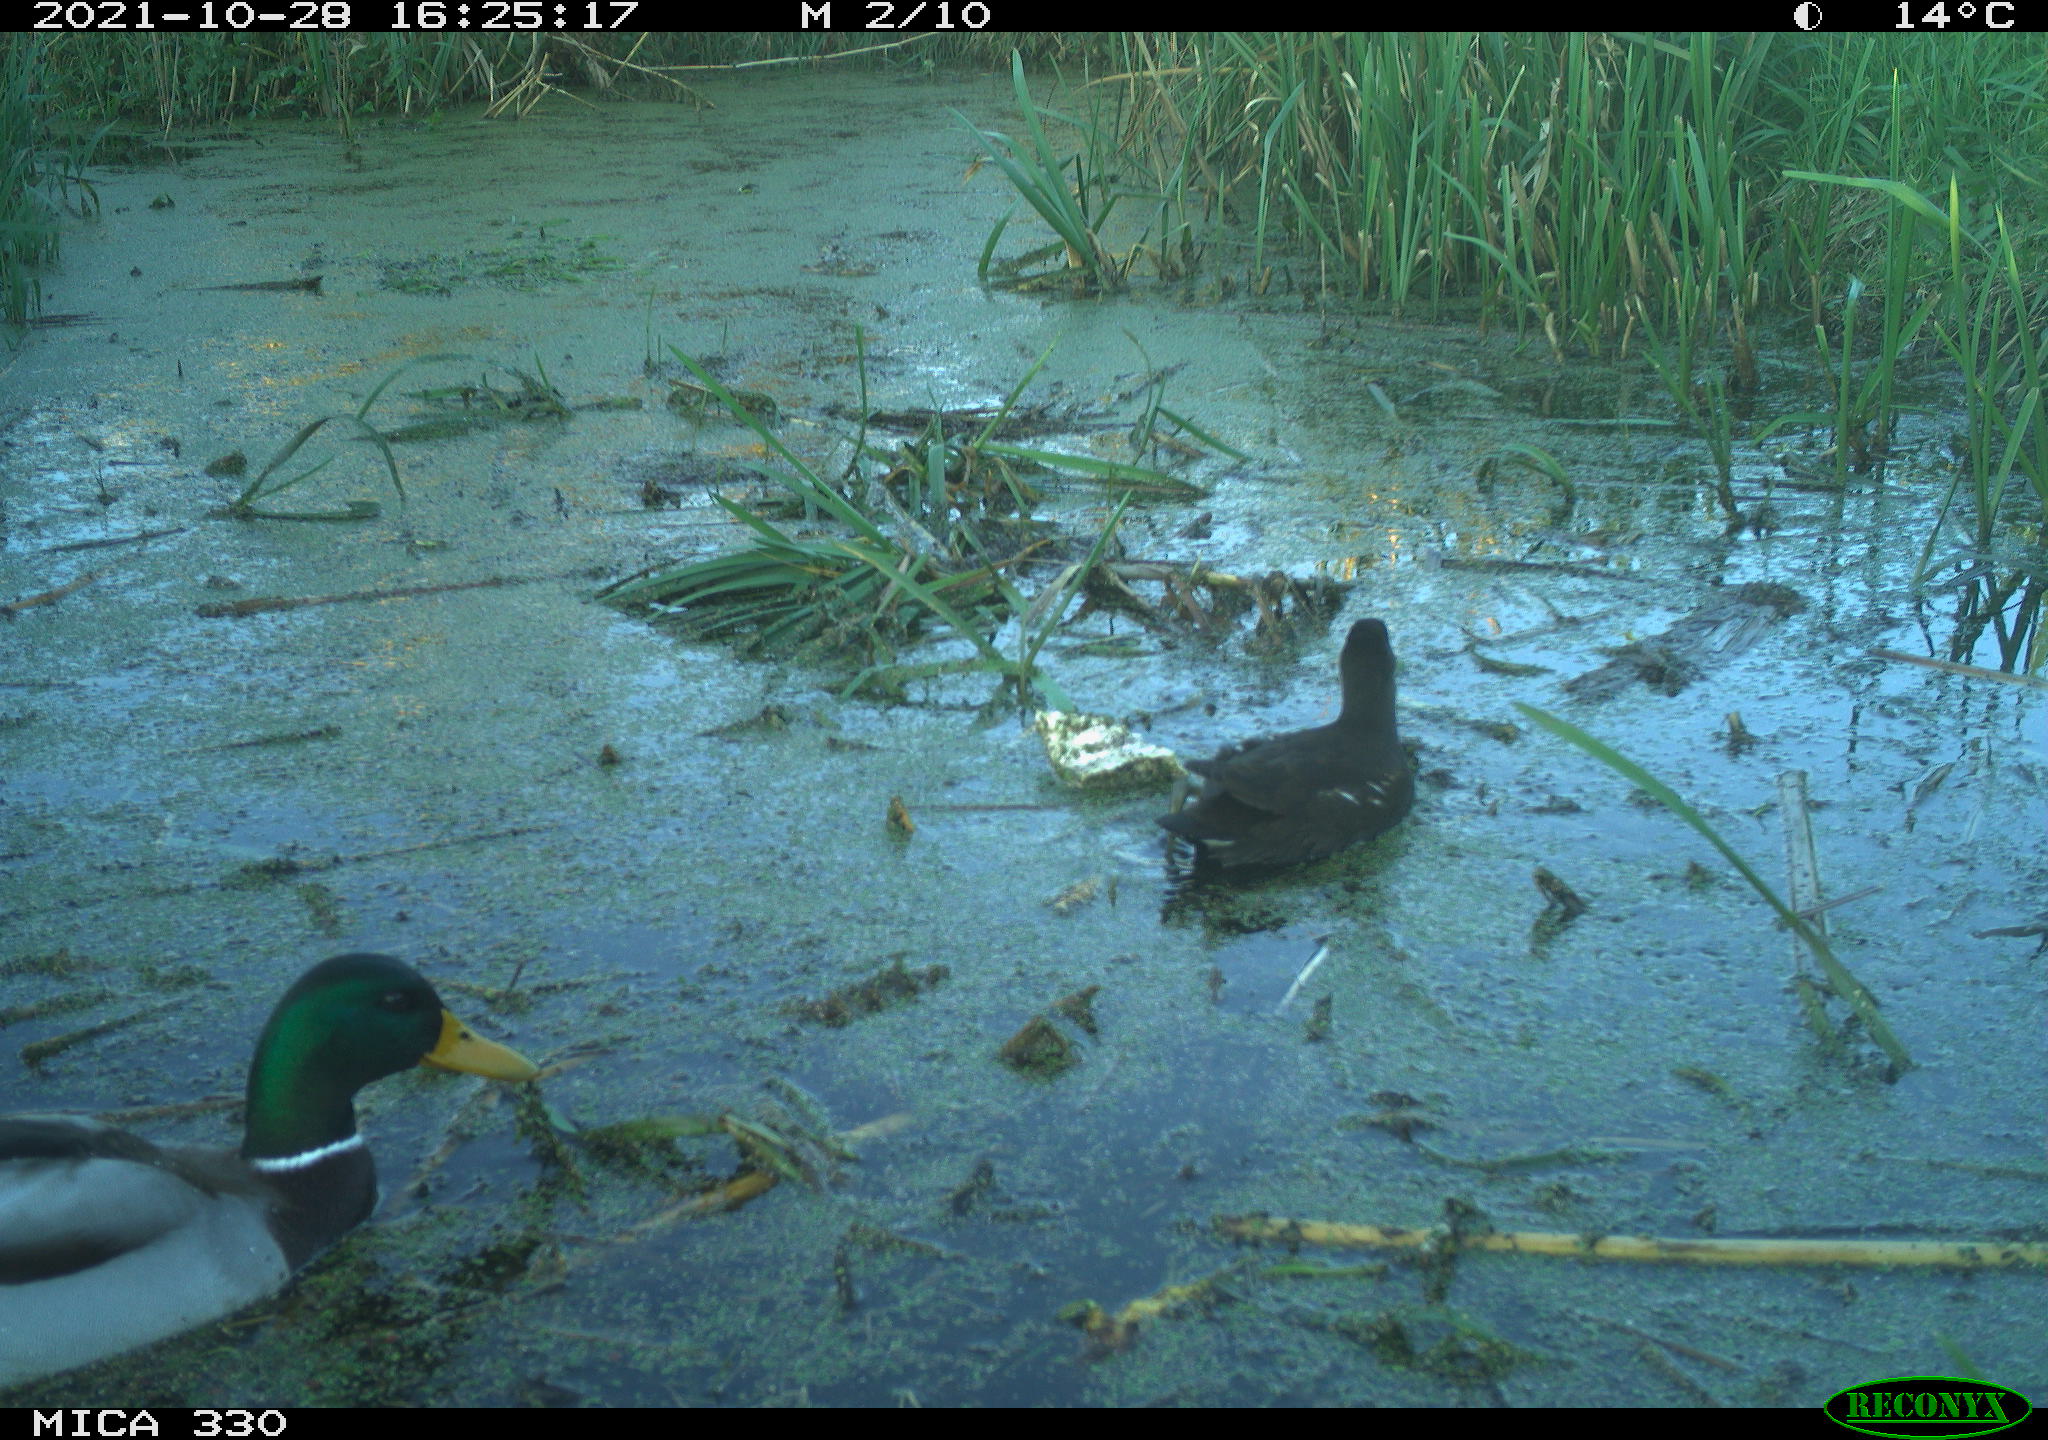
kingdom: Animalia
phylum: Chordata
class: Aves
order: Anseriformes
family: Anatidae
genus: Anas
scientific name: Anas platyrhynchos
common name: Mallard
